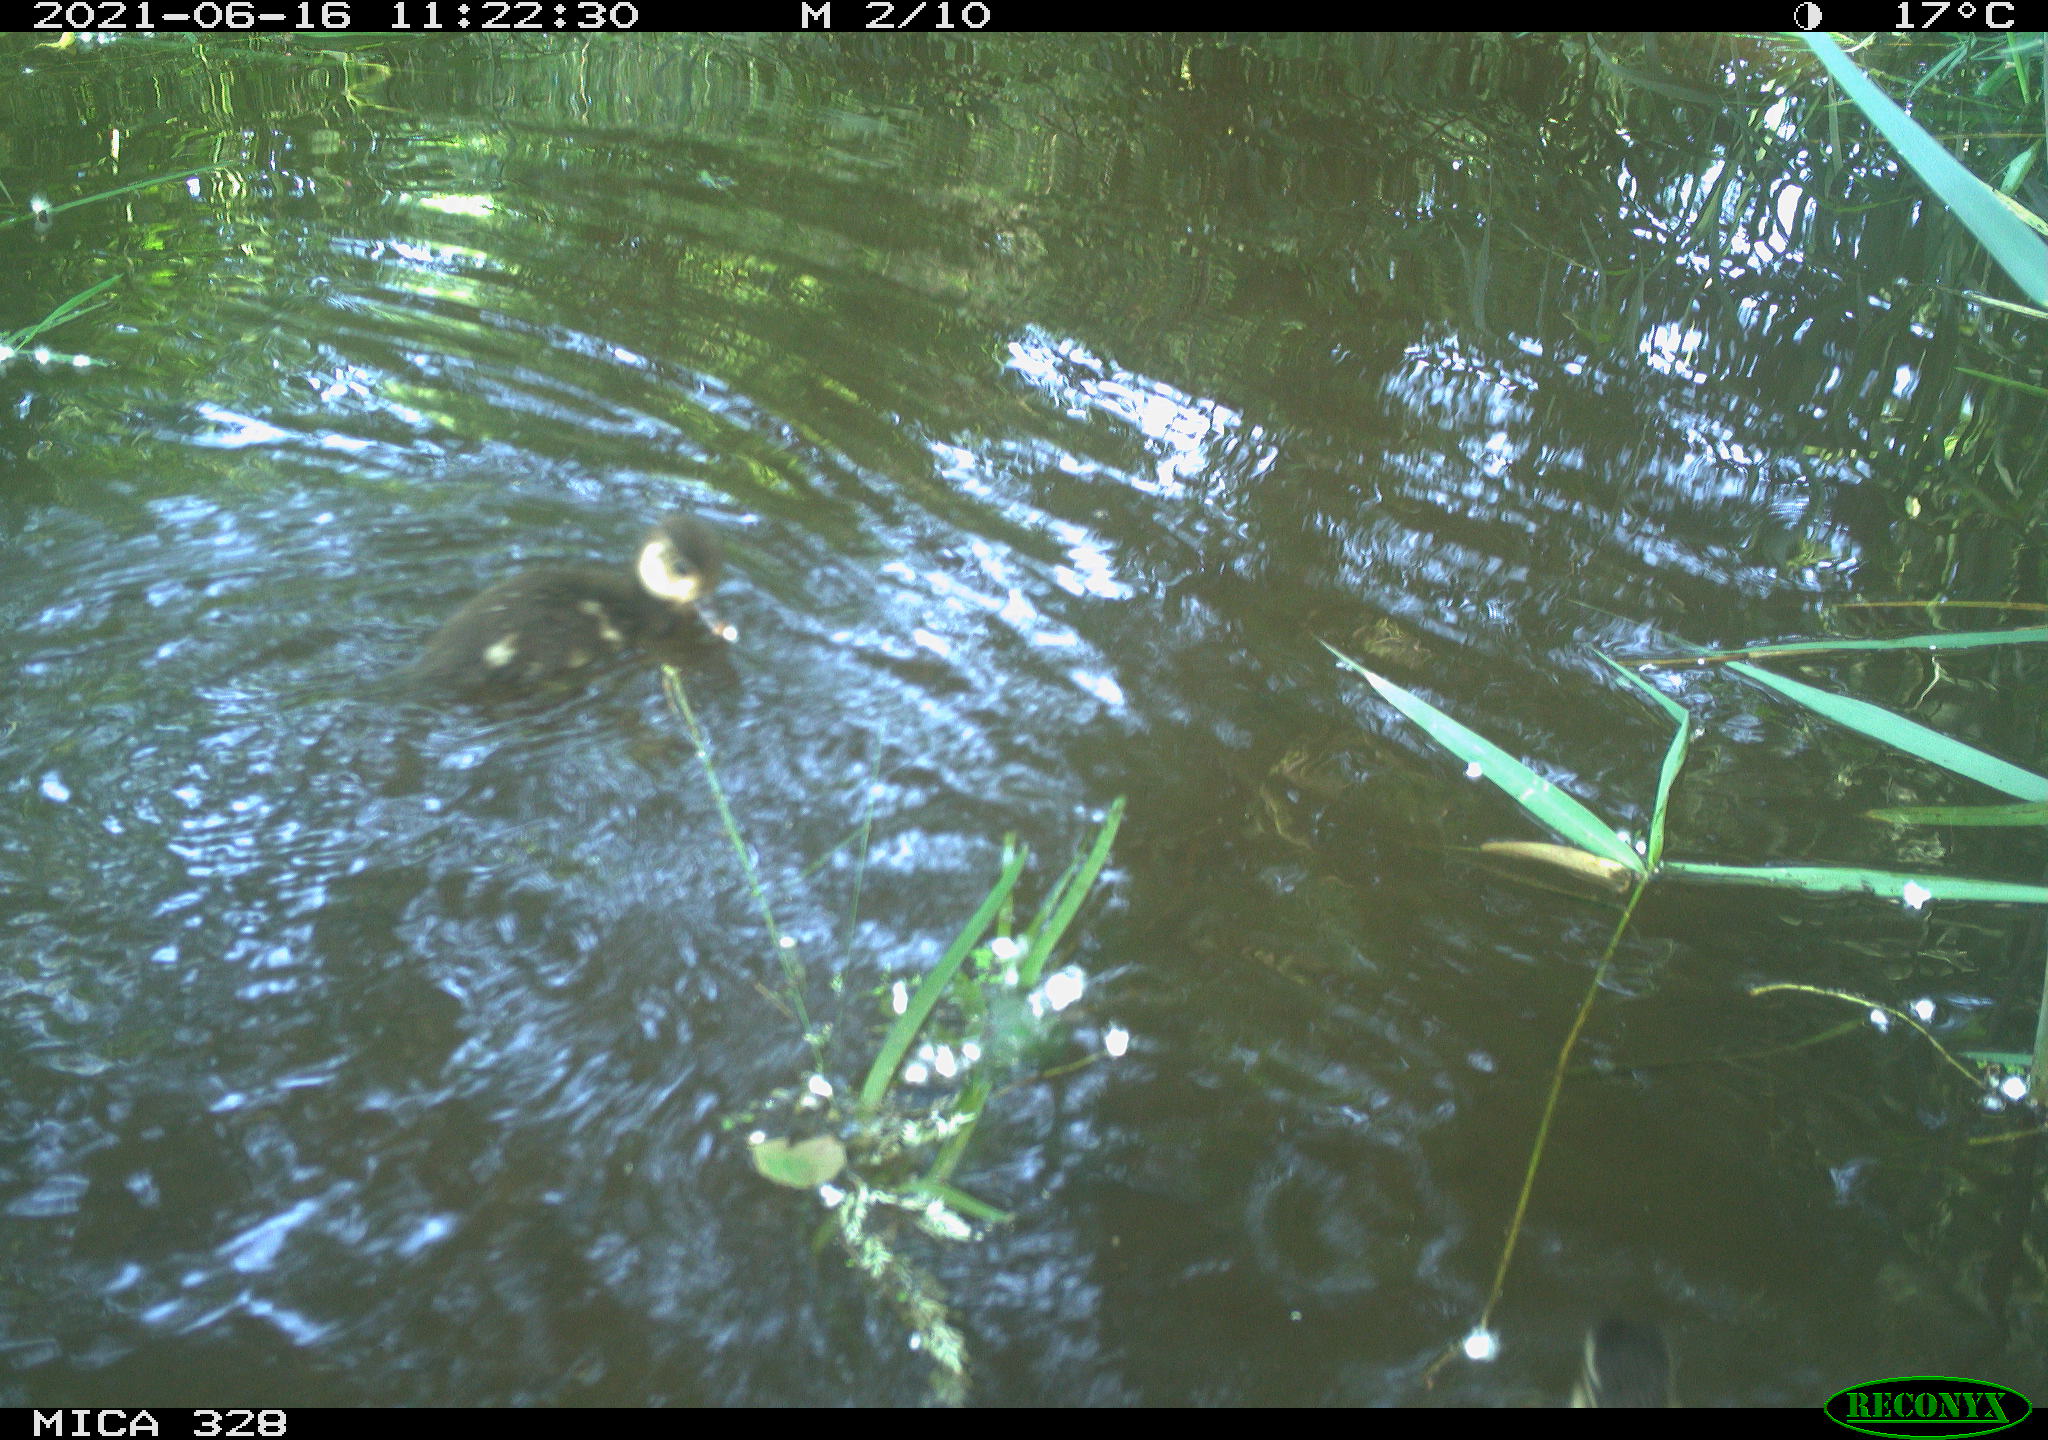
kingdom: Animalia
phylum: Chordata
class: Aves
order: Anseriformes
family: Anatidae
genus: Aix
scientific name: Aix galericulata
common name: Mandarin duck
